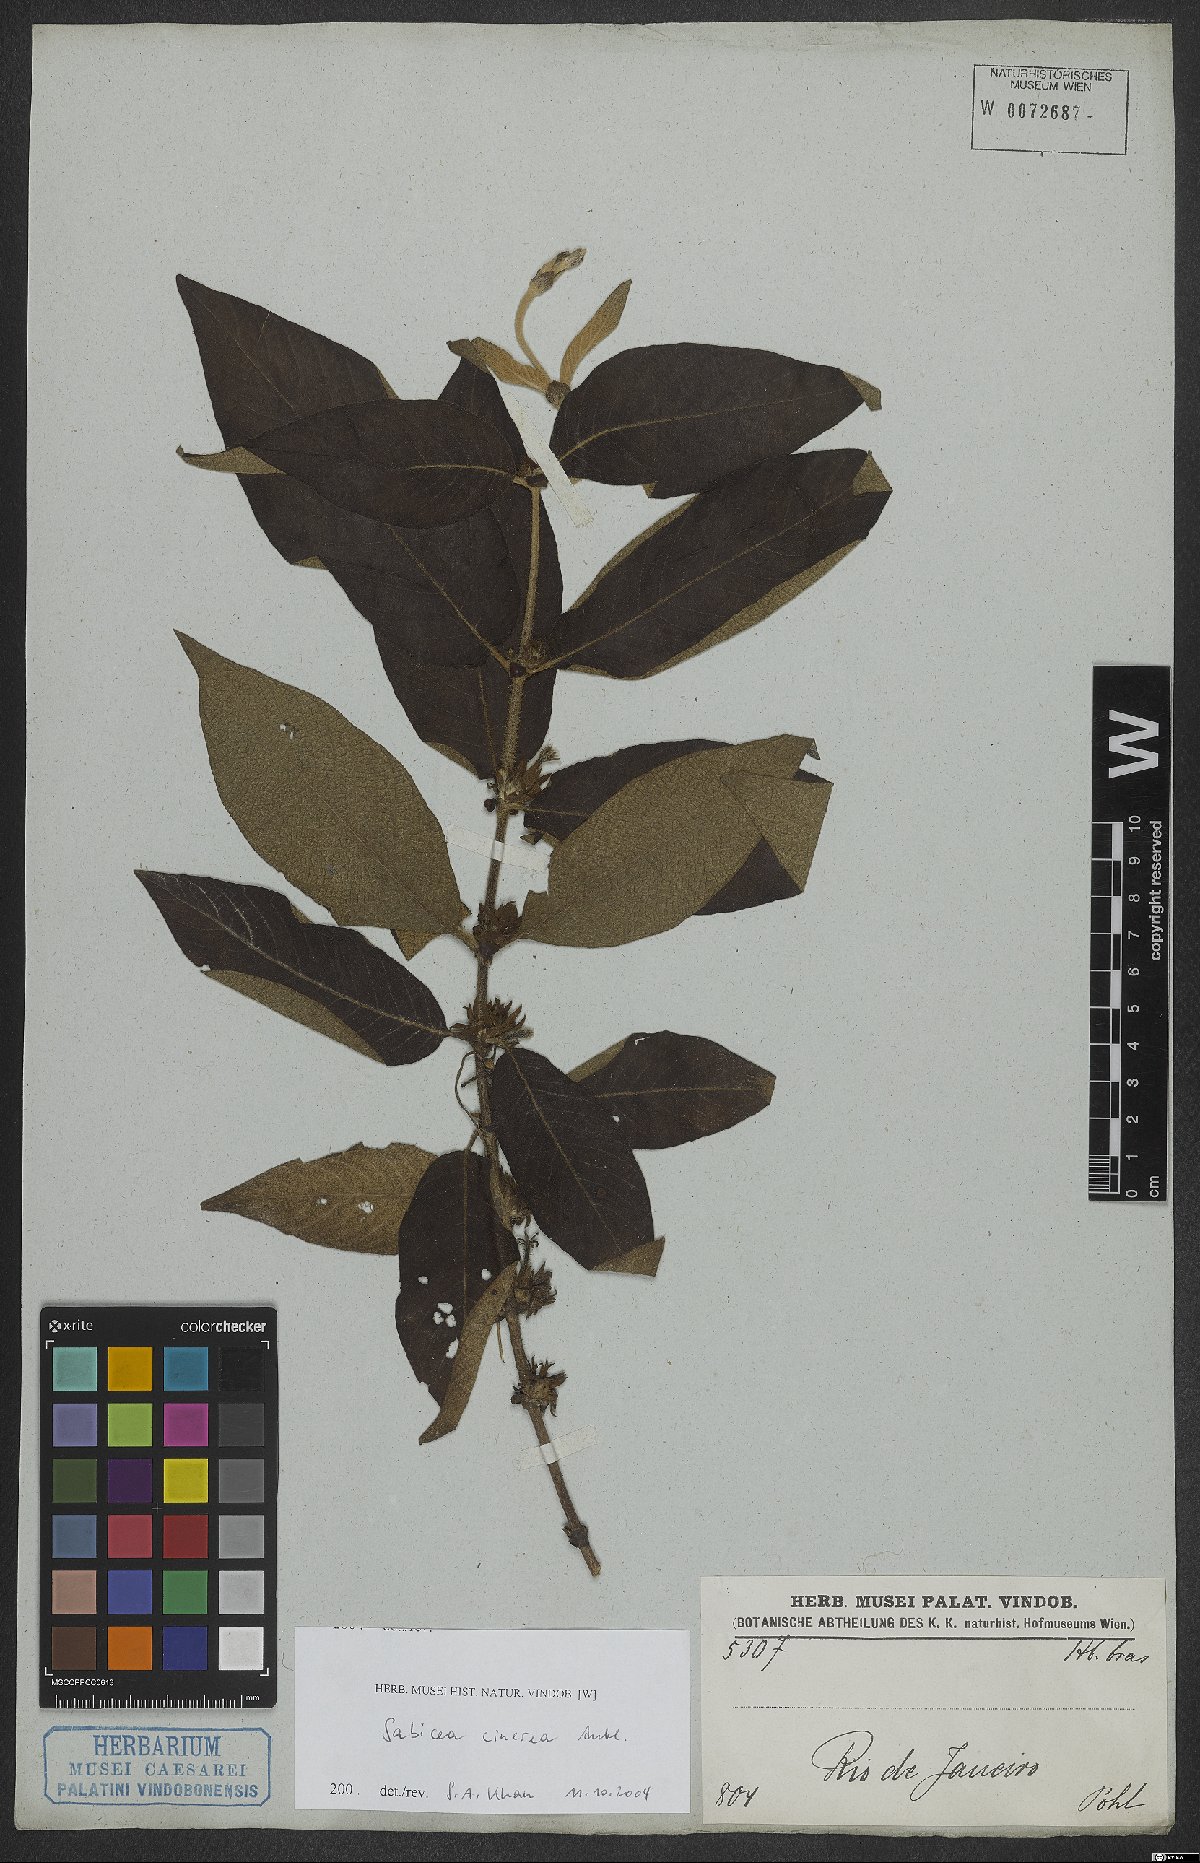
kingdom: Plantae
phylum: Tracheophyta
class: Magnoliopsida
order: Gentianales
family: Rubiaceae
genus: Sabicea
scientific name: Sabicea cinerea
